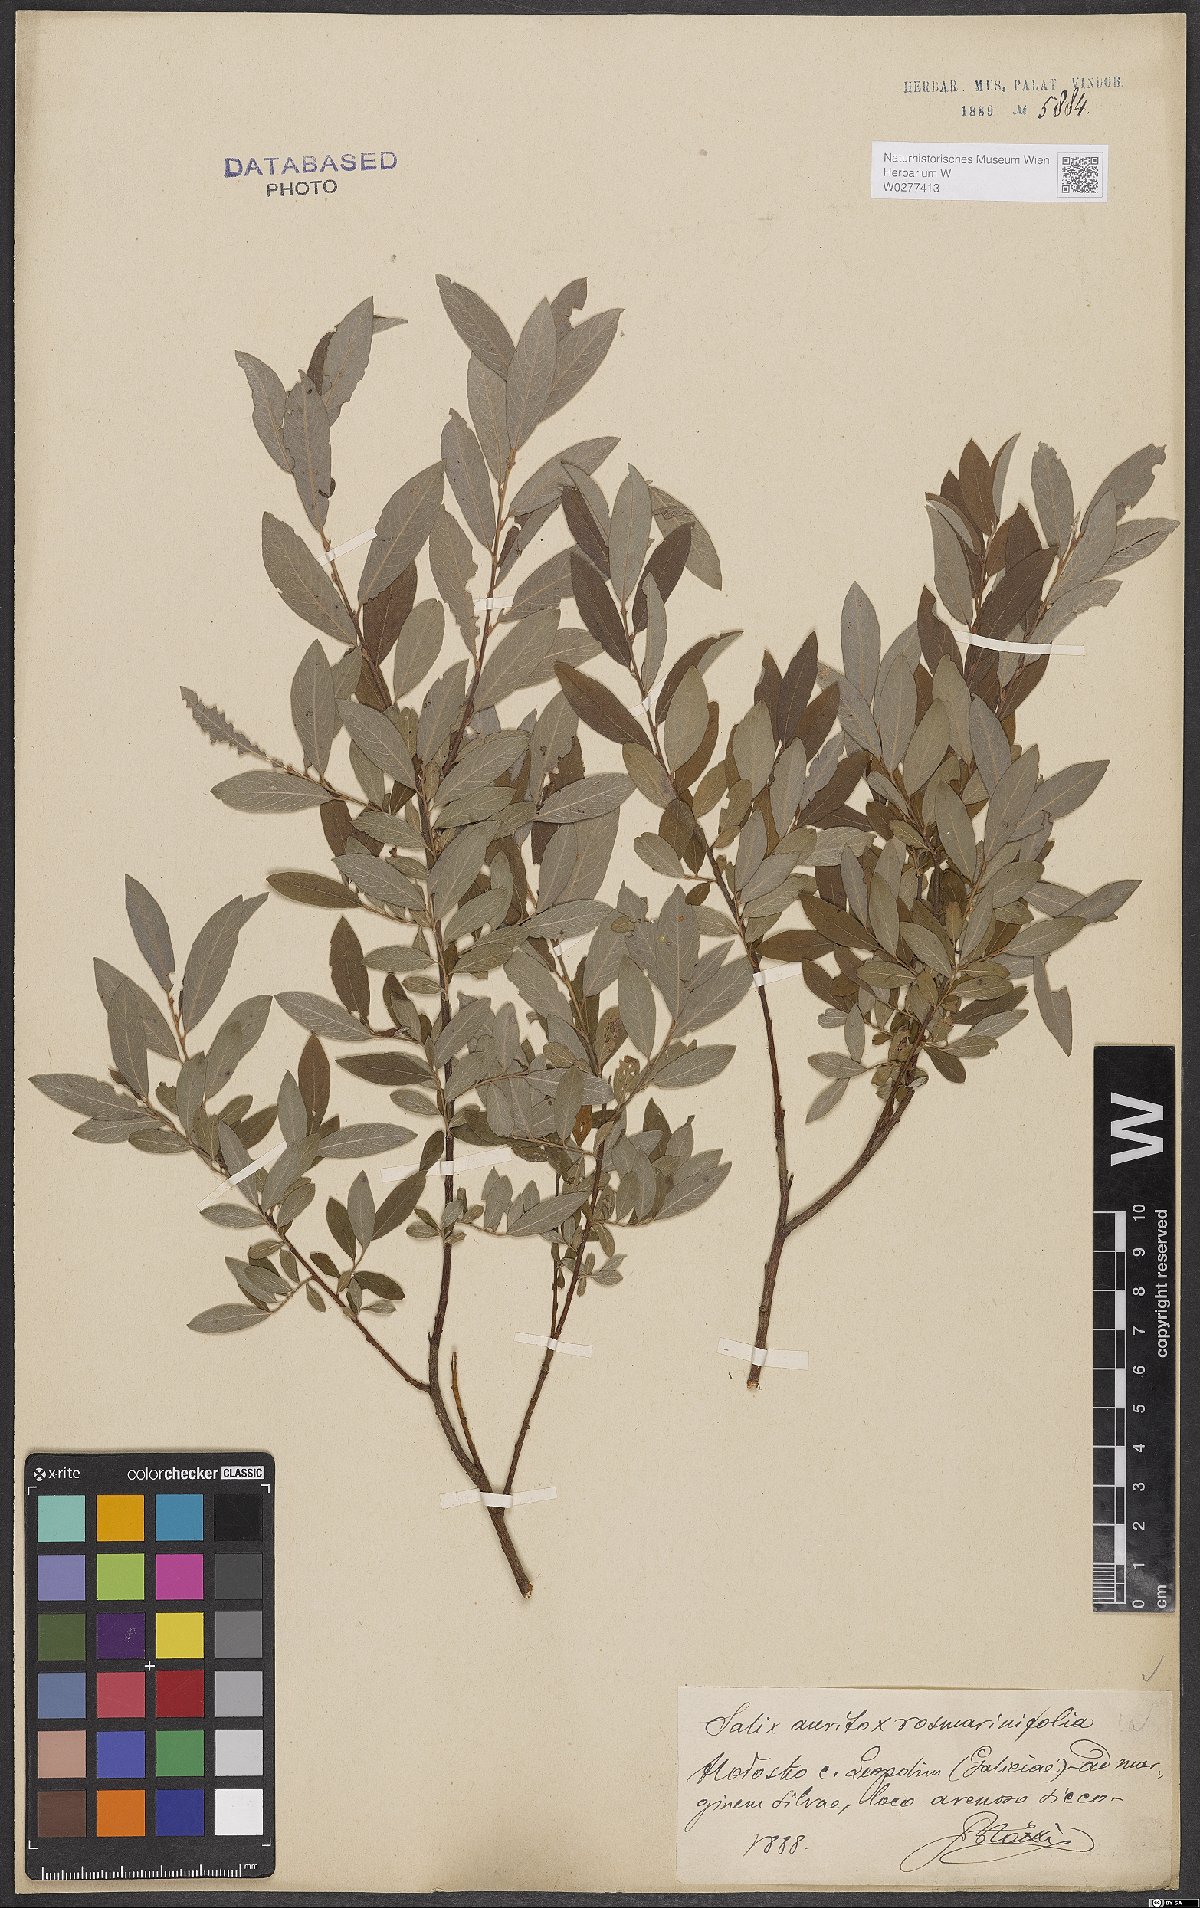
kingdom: Plantae
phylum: Tracheophyta
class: Magnoliopsida
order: Malpighiales
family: Salicaceae
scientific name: Salicaceae
